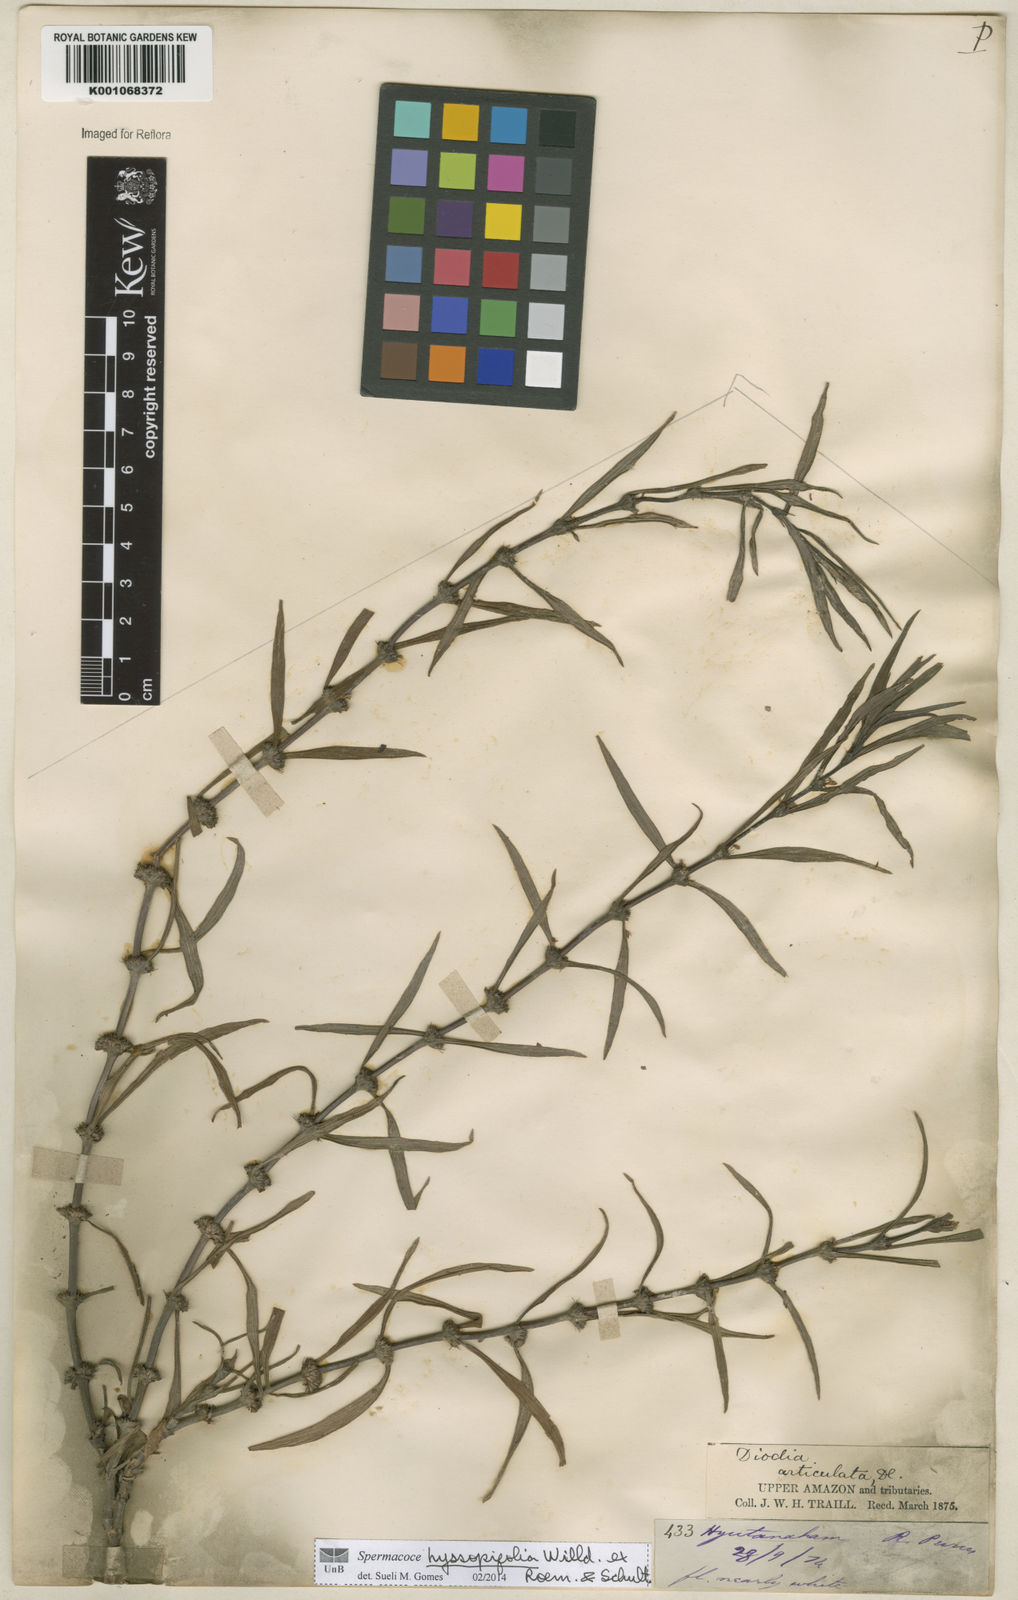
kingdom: Plantae
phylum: Tracheophyta
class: Magnoliopsida
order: Gentianales
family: Rubiaceae
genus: Spermacoce
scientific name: Spermacoce
